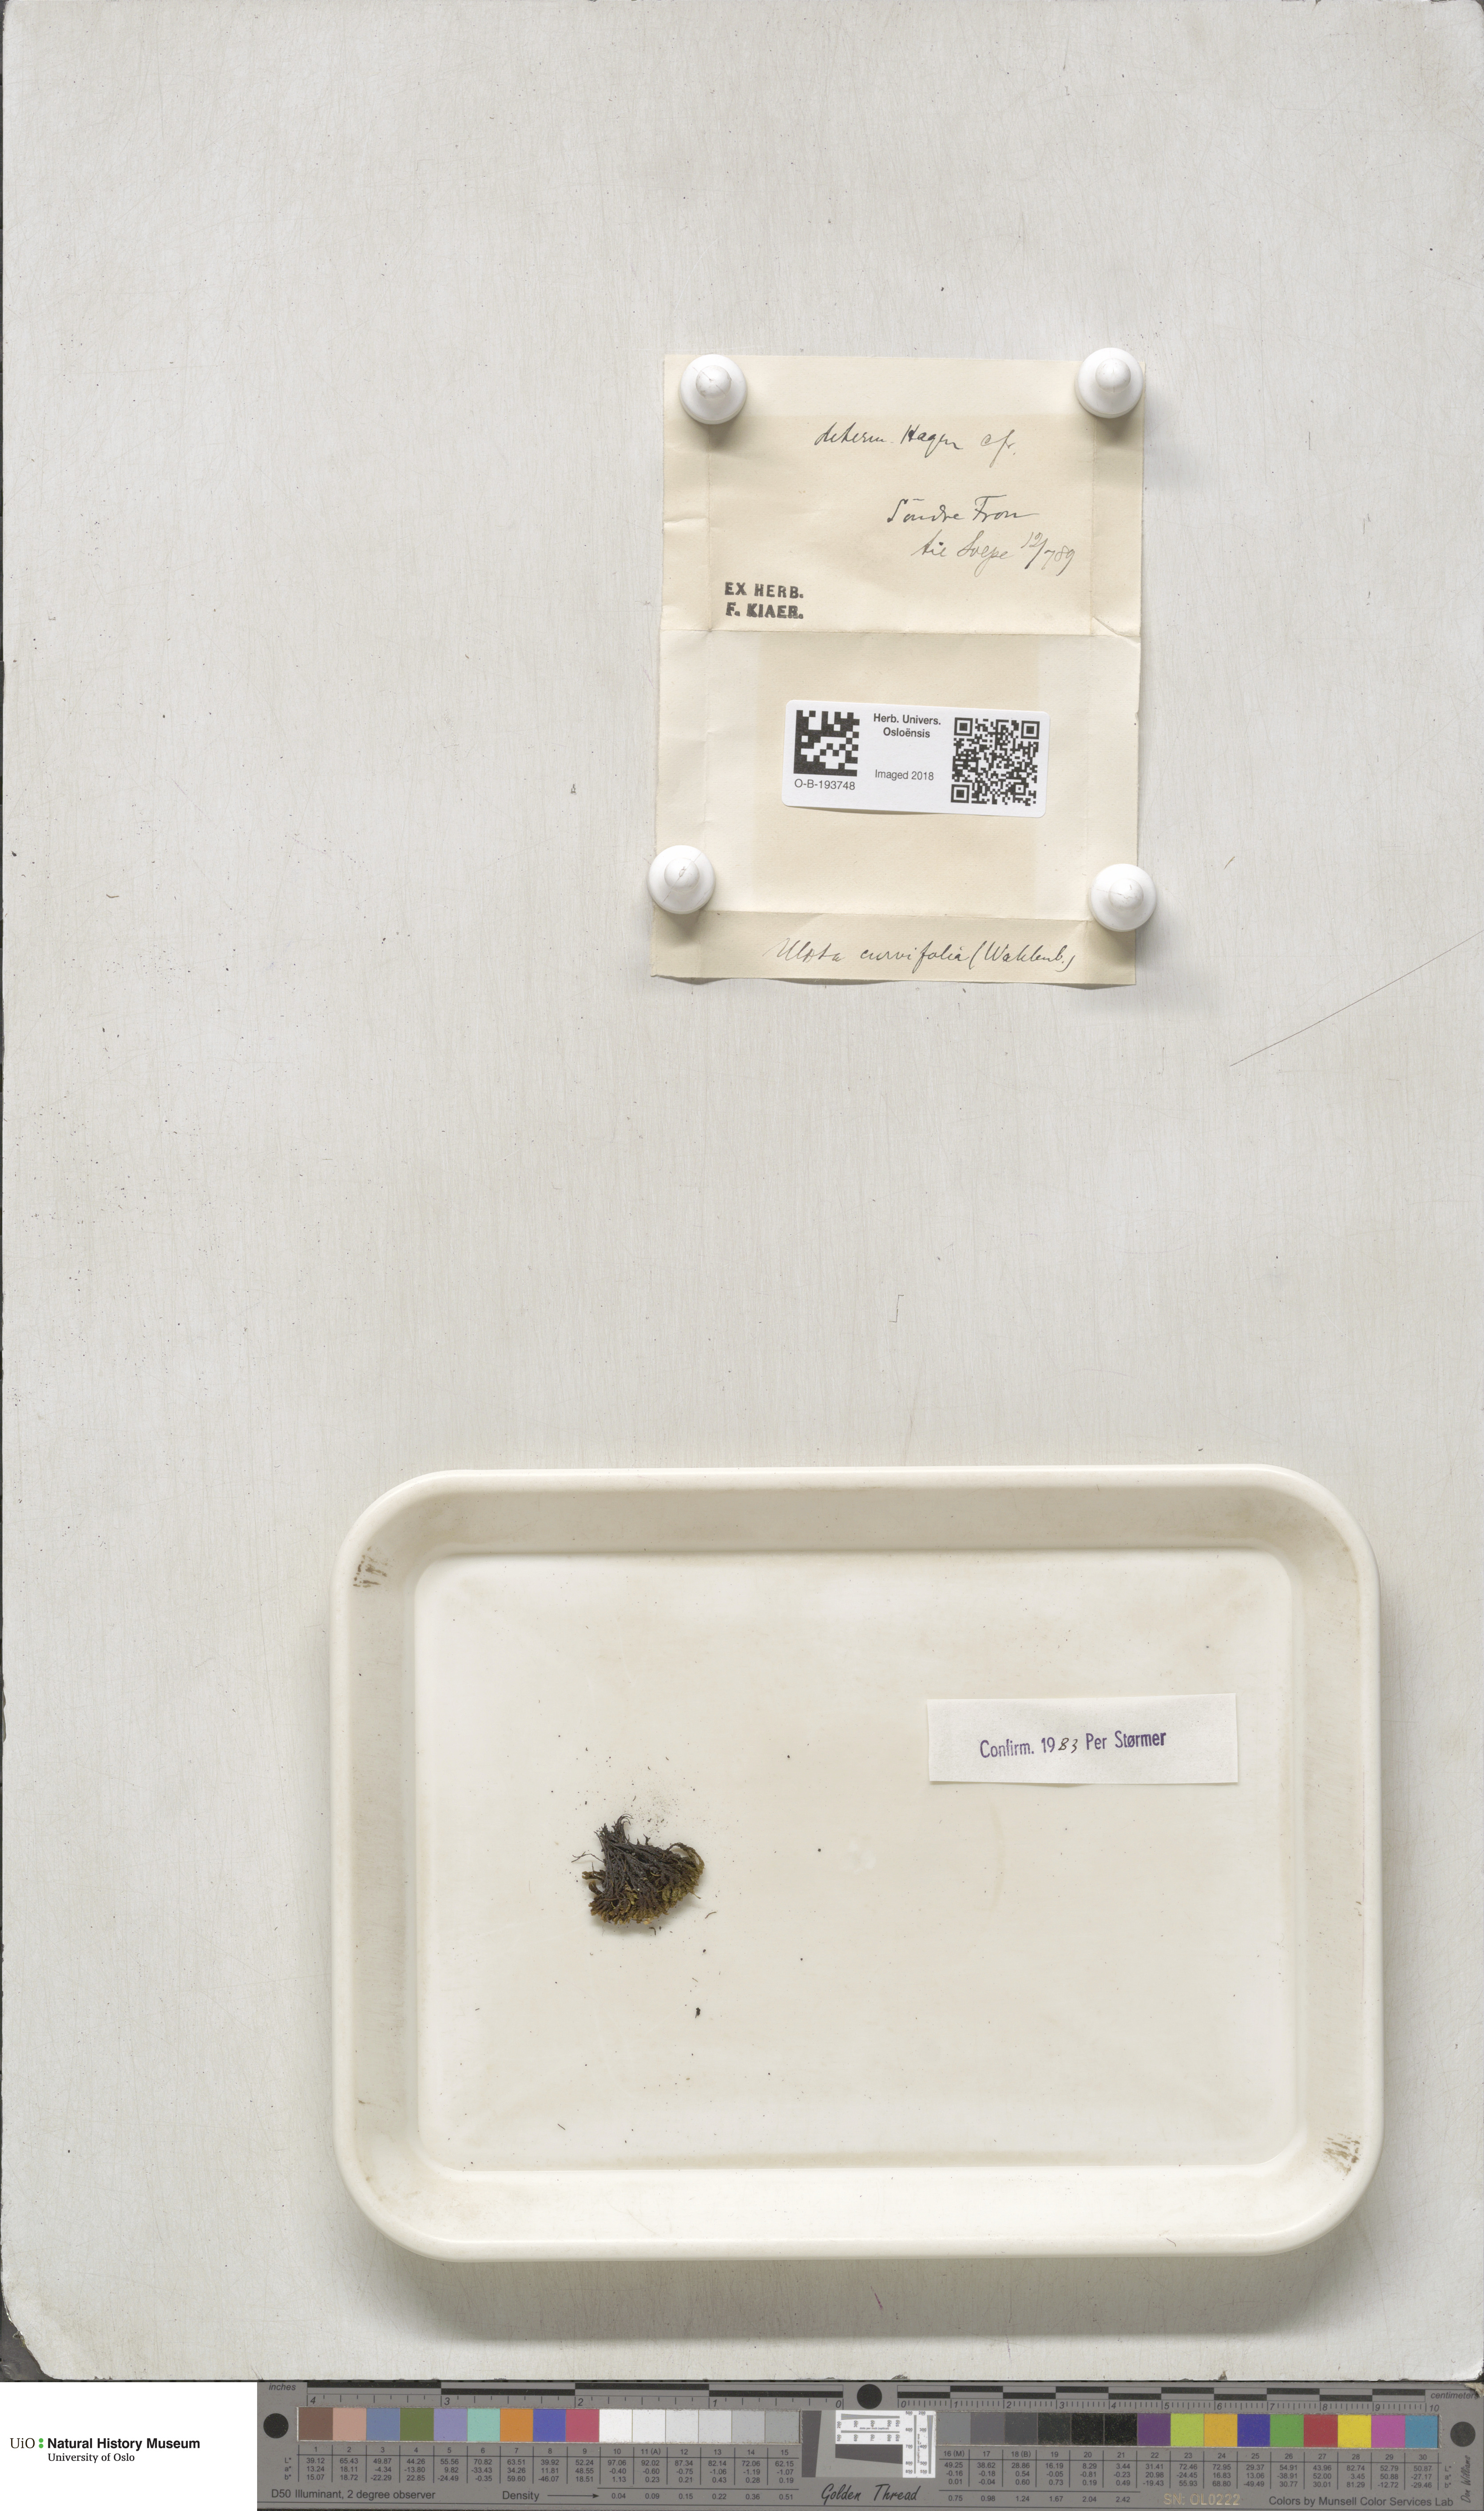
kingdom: Plantae
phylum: Bryophyta
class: Bryopsida
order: Orthotrichales
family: Orthotrichaceae
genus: Ulota
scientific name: Ulota curvifolia
